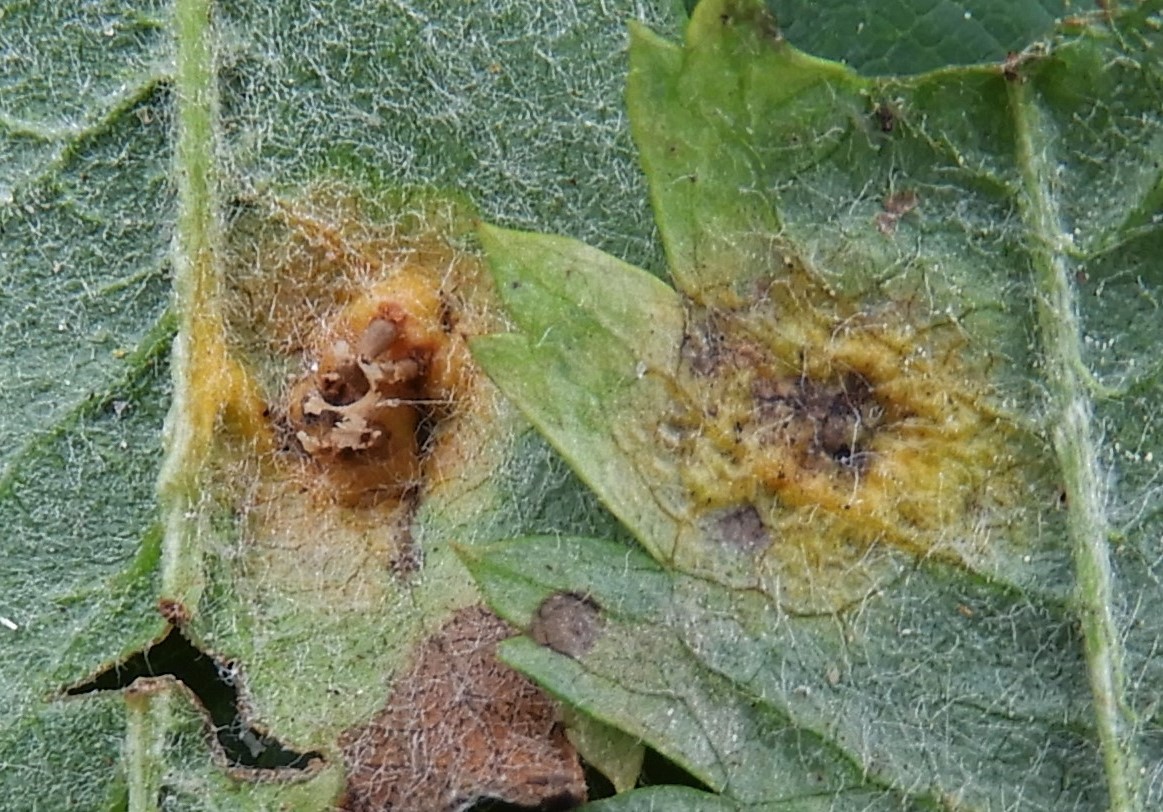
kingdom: Fungi
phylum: Basidiomycota
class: Pucciniomycetes
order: Pucciniales
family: Gymnosporangiaceae
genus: Gymnosporangium
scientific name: Gymnosporangium cornutum
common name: rønnehorn-bævrerust
